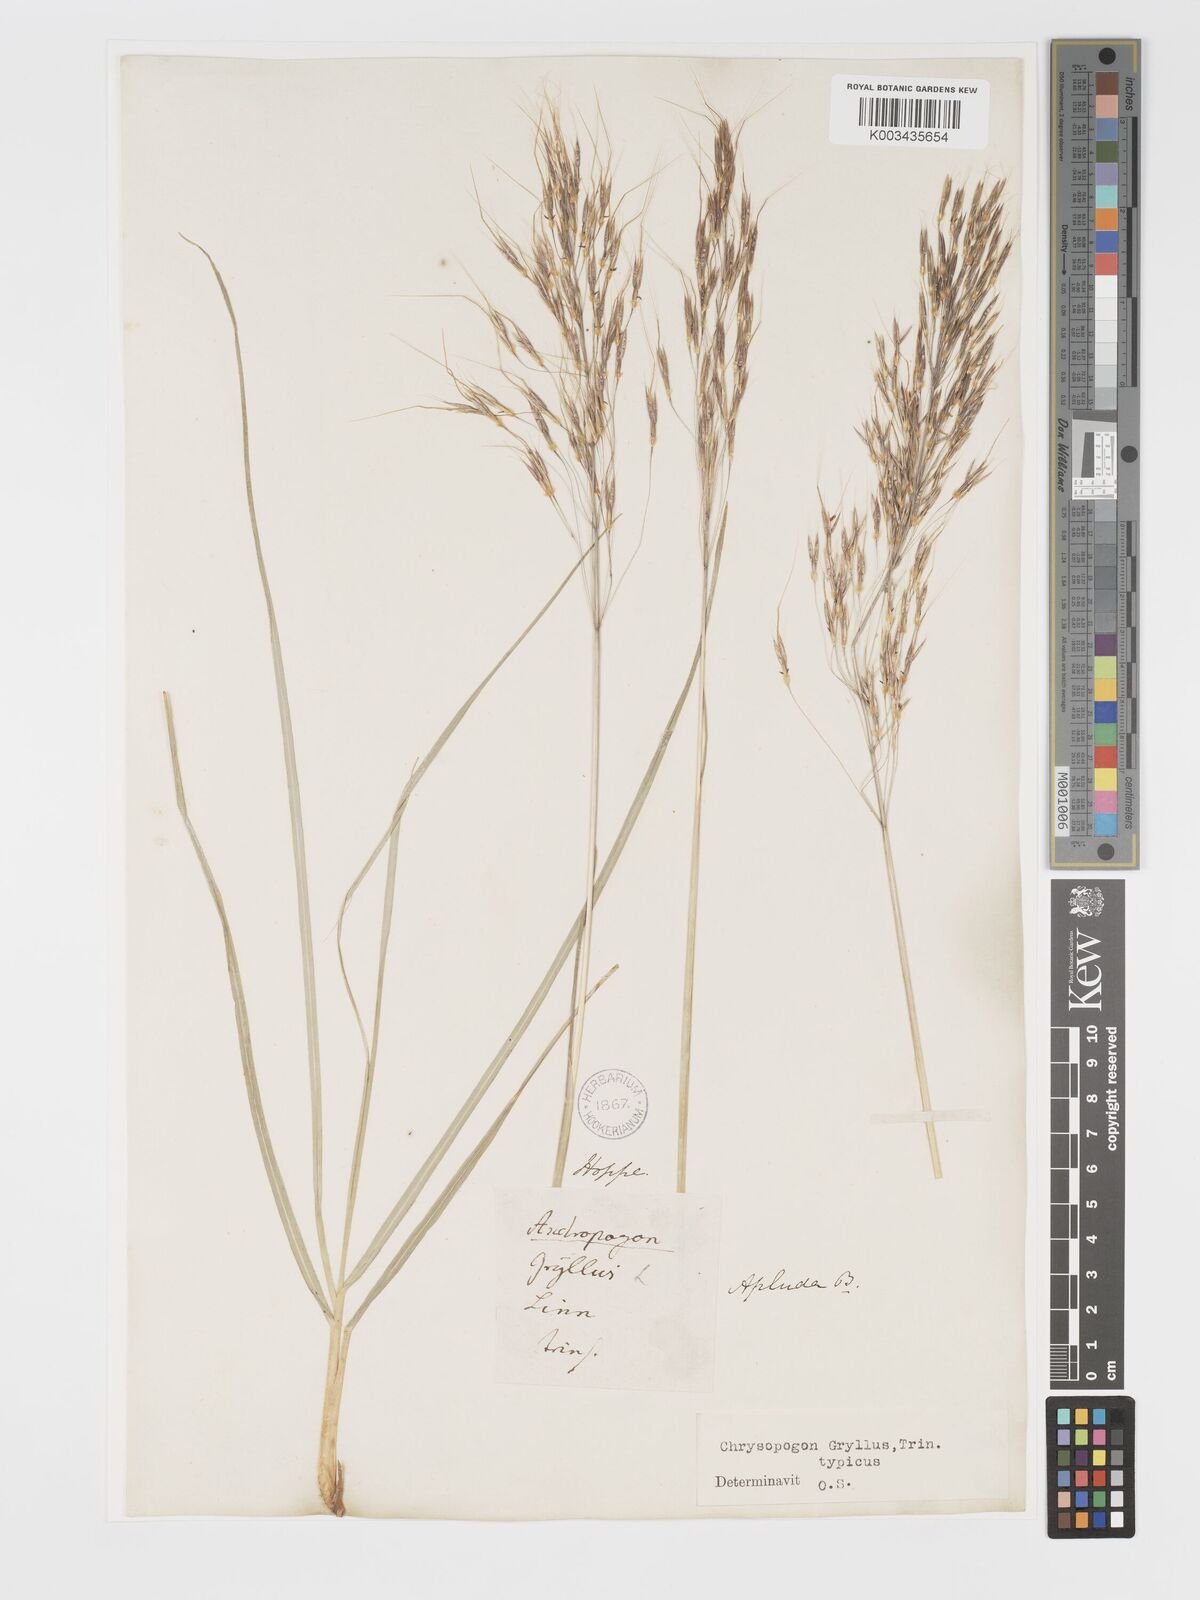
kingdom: Plantae
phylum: Tracheophyta
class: Liliopsida
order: Poales
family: Poaceae
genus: Chrysopogon
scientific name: Chrysopogon gryllus
